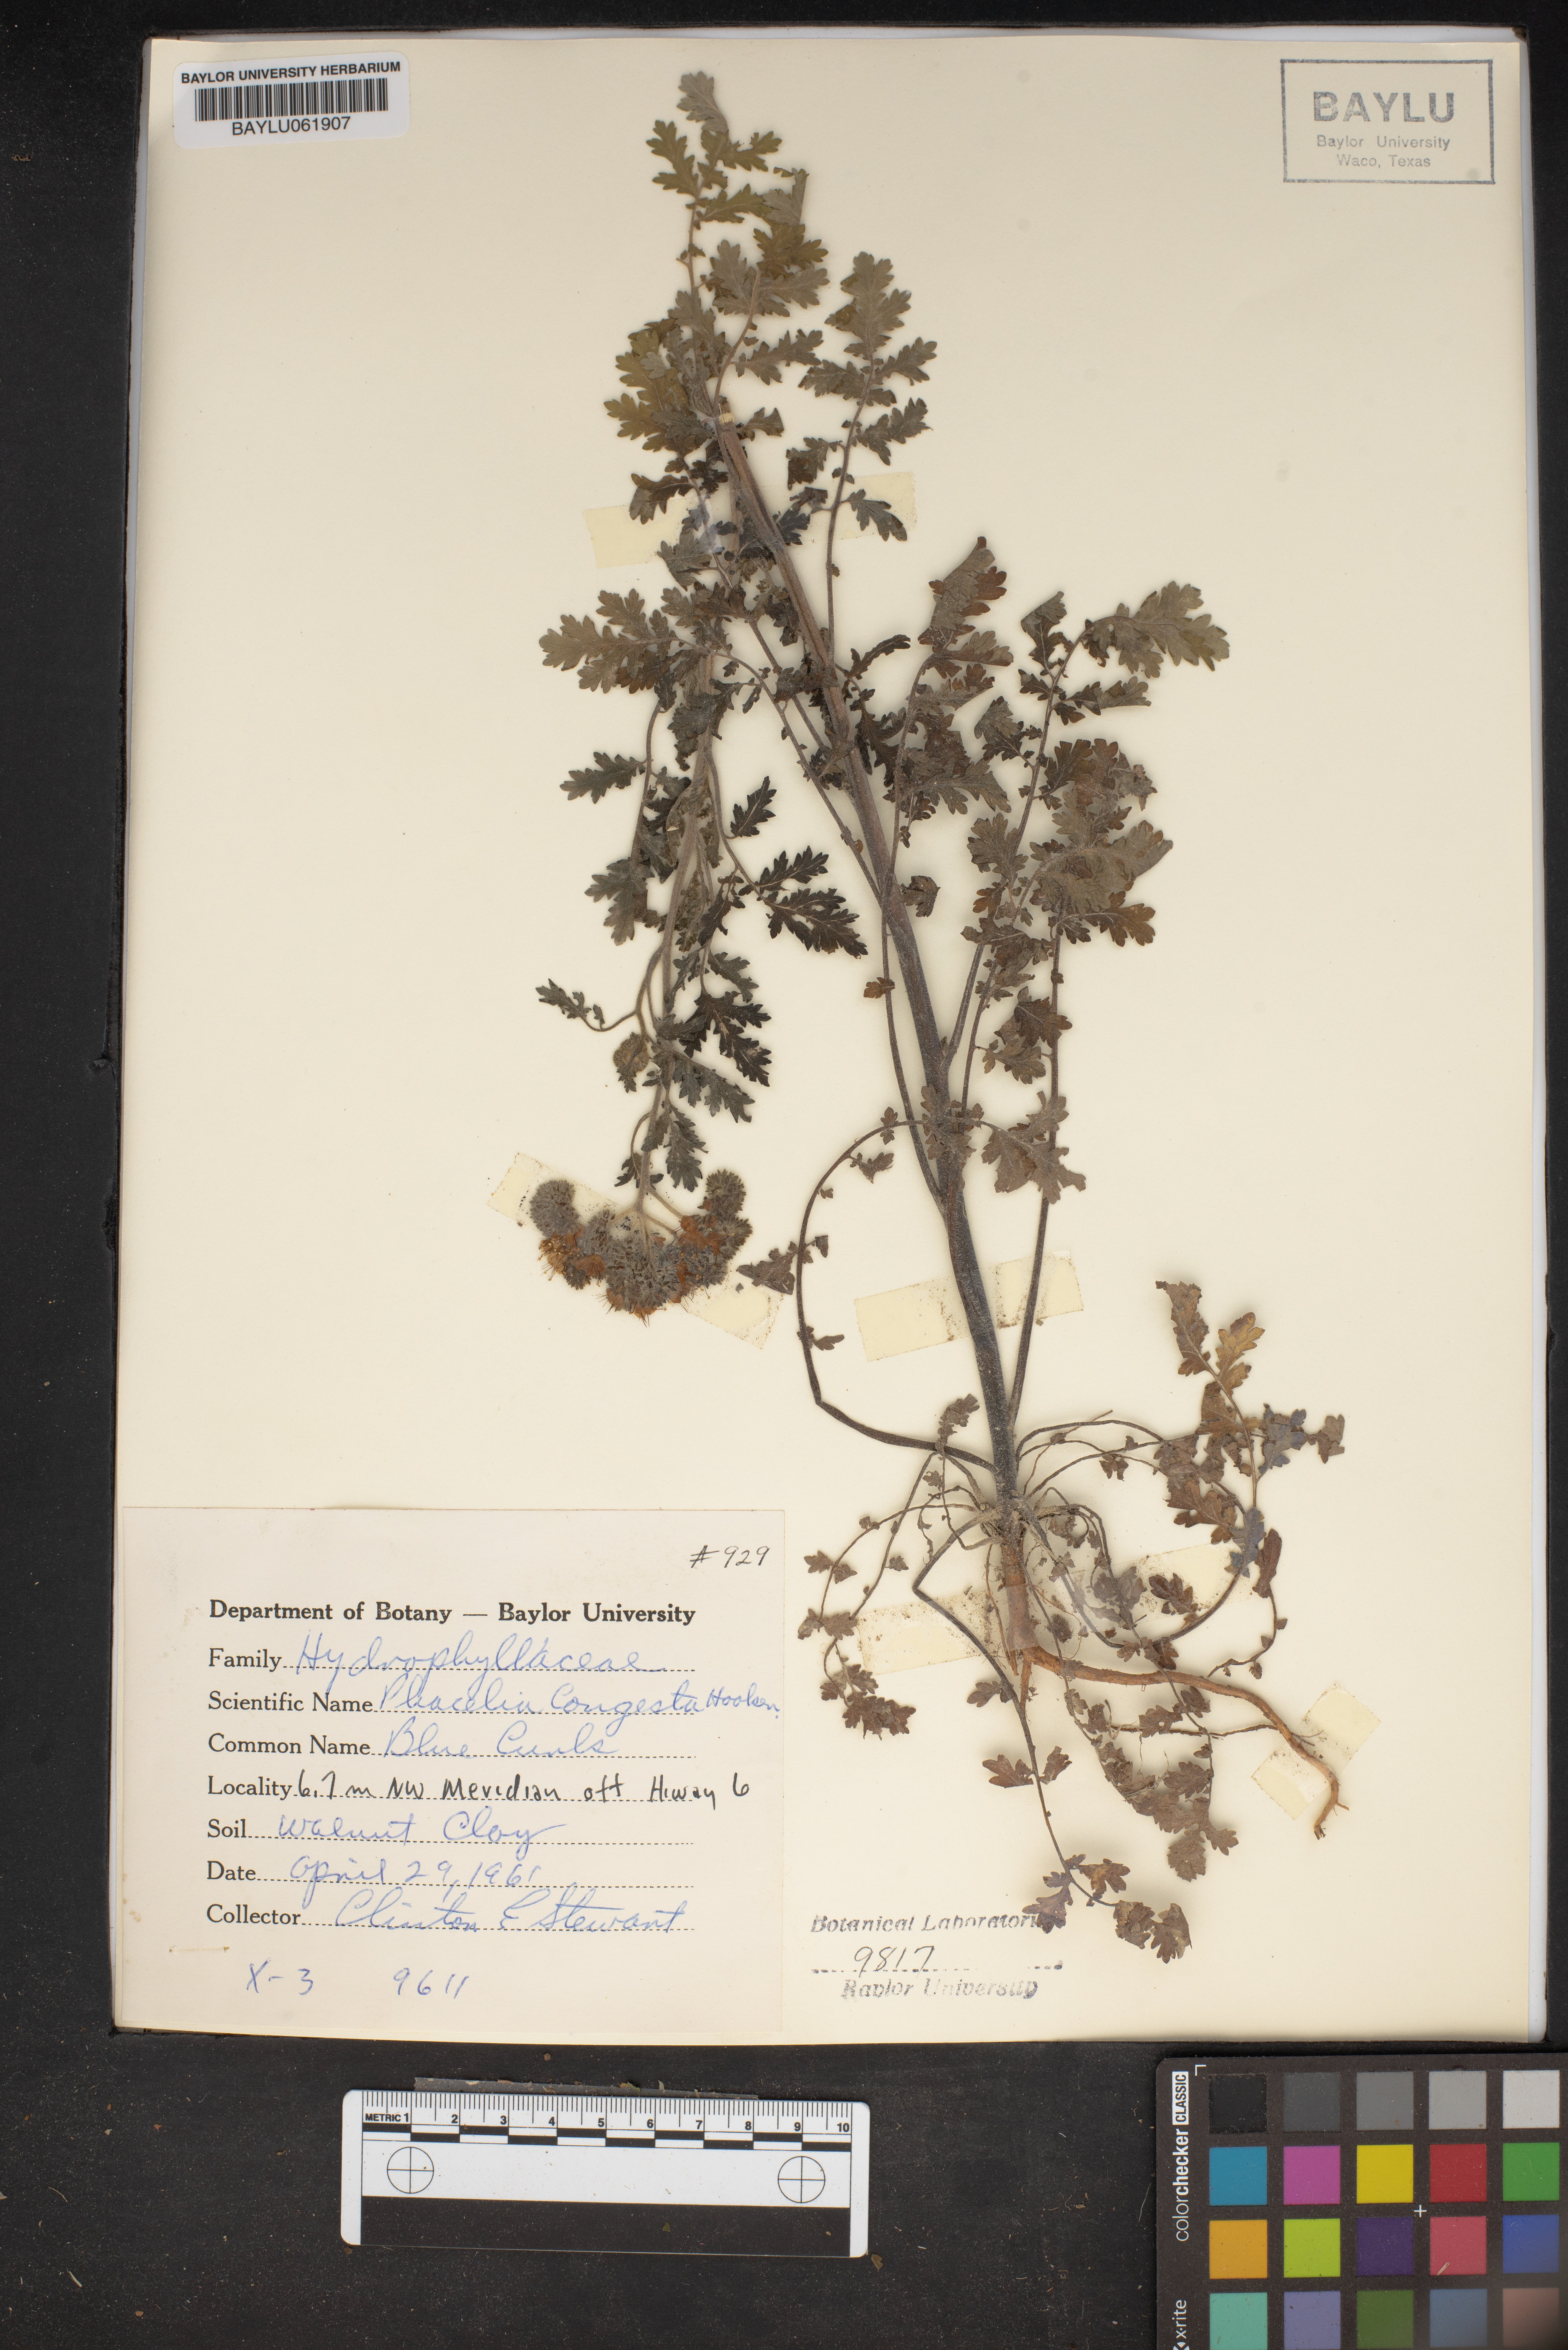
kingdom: Plantae
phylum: Tracheophyta
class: Magnoliopsida
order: Boraginales
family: Hydrophyllaceae
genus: Phacelia
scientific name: Phacelia congesta
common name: Blue curls
